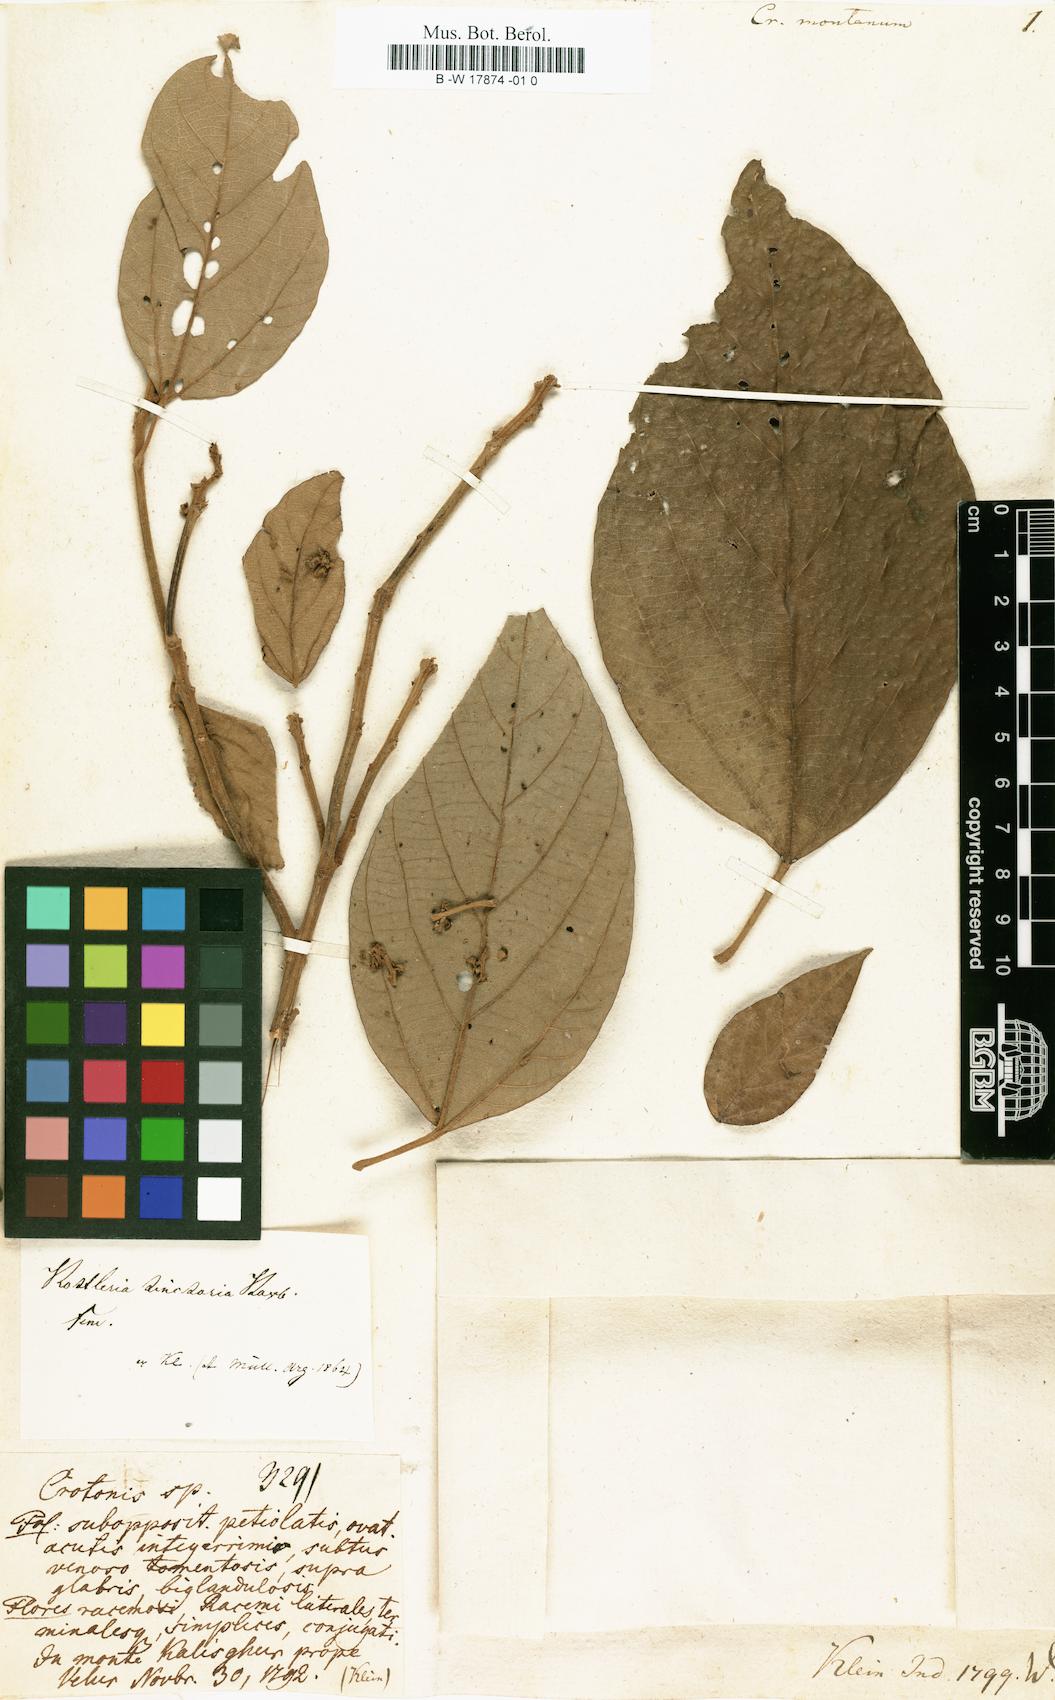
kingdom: Plantae
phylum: Tracheophyta
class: Magnoliopsida
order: Malpighiales
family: Euphorbiaceae
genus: Croton
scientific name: Croton montanus
